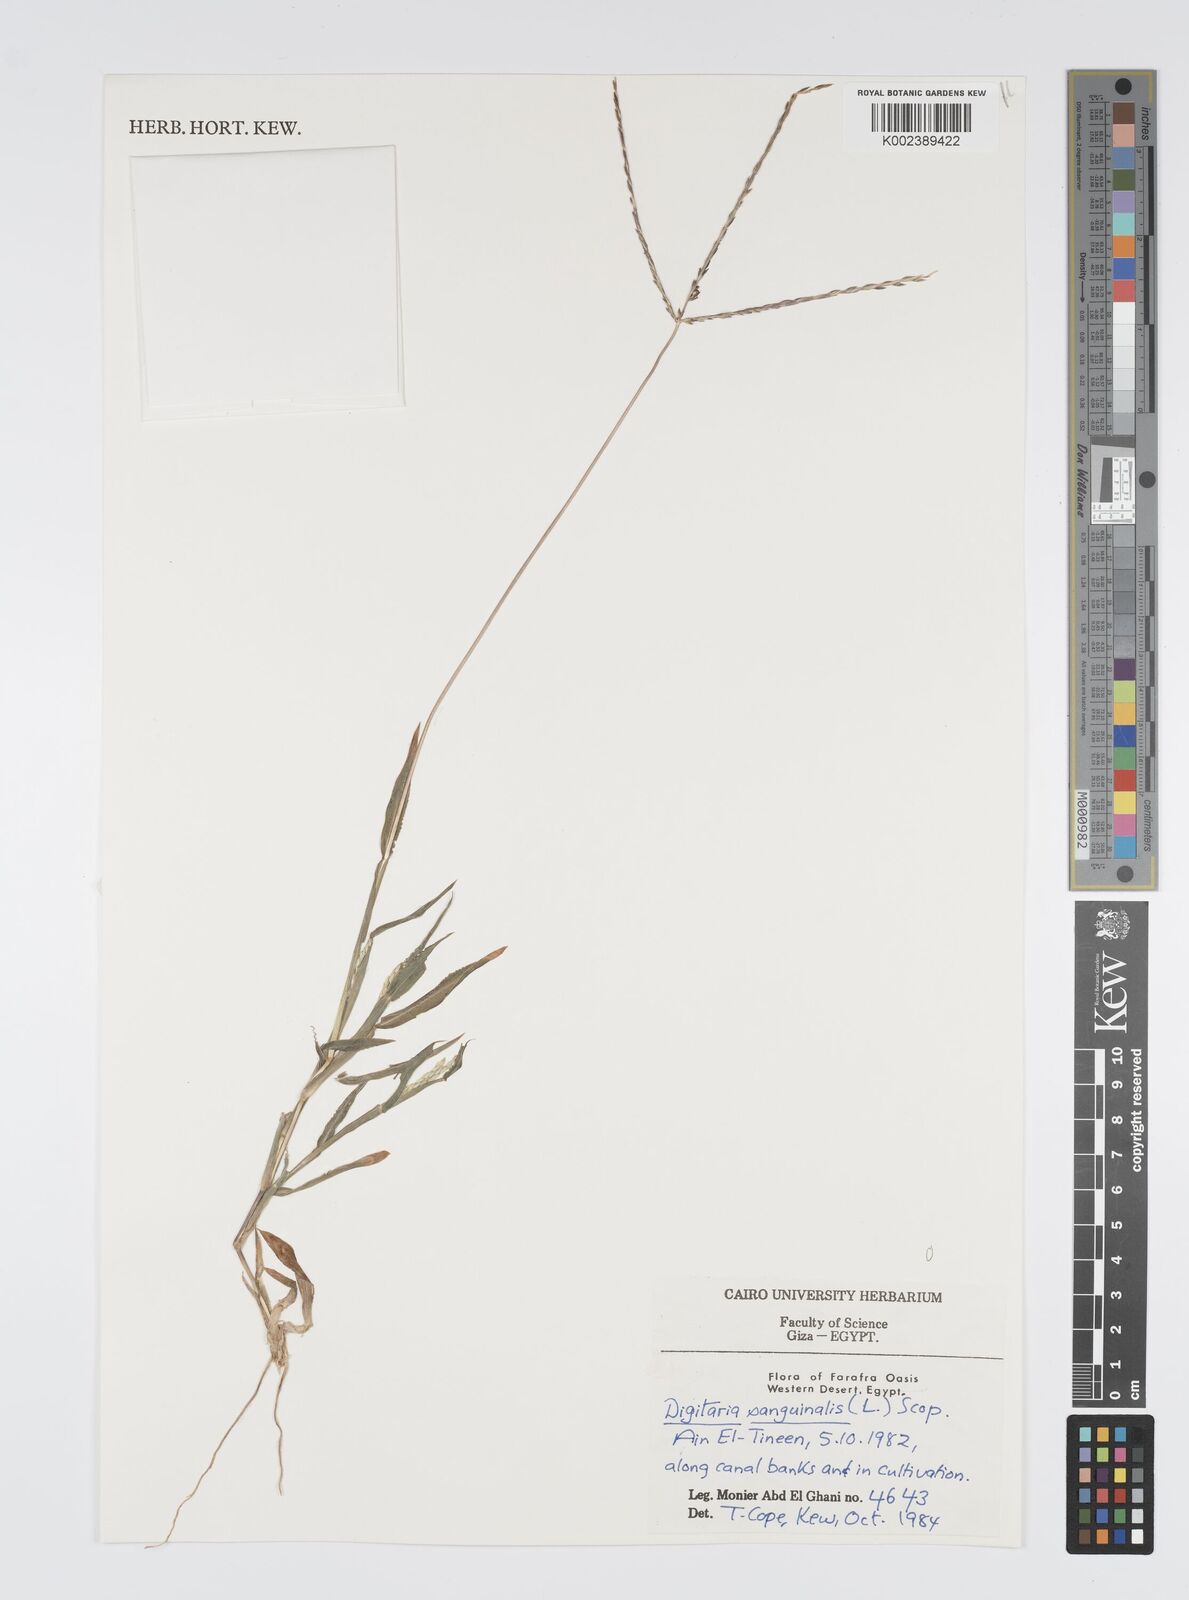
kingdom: Plantae
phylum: Tracheophyta
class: Liliopsida
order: Poales
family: Poaceae
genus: Digitaria
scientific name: Digitaria sanguinalis
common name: Hairy crabgrass
